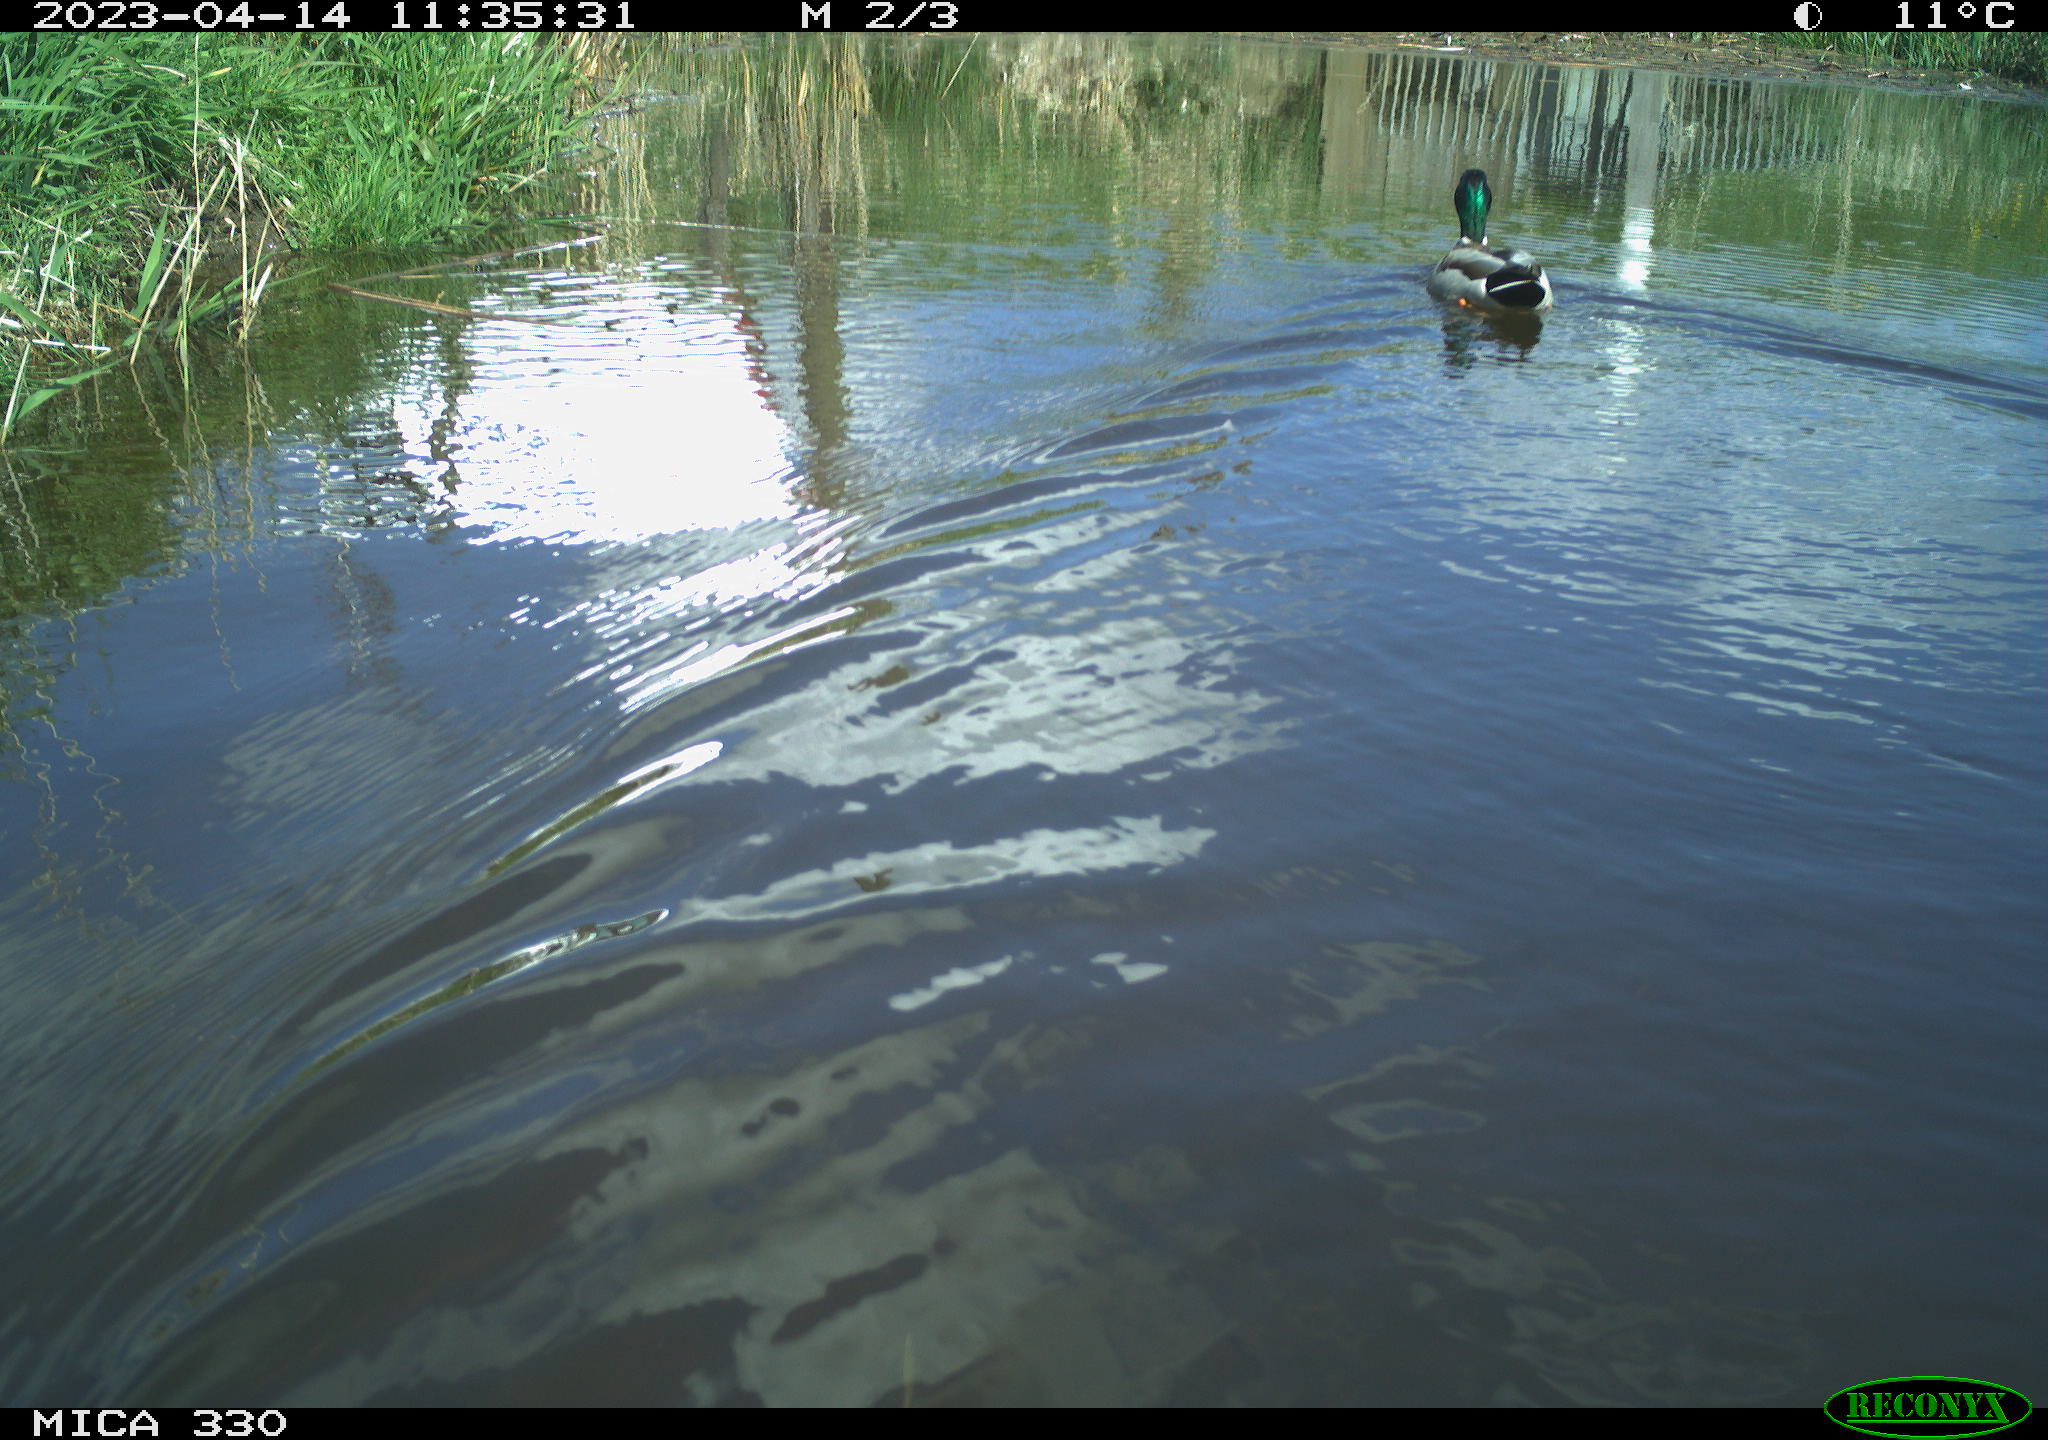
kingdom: Animalia
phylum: Chordata
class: Aves
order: Anseriformes
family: Anatidae
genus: Anas
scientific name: Anas
